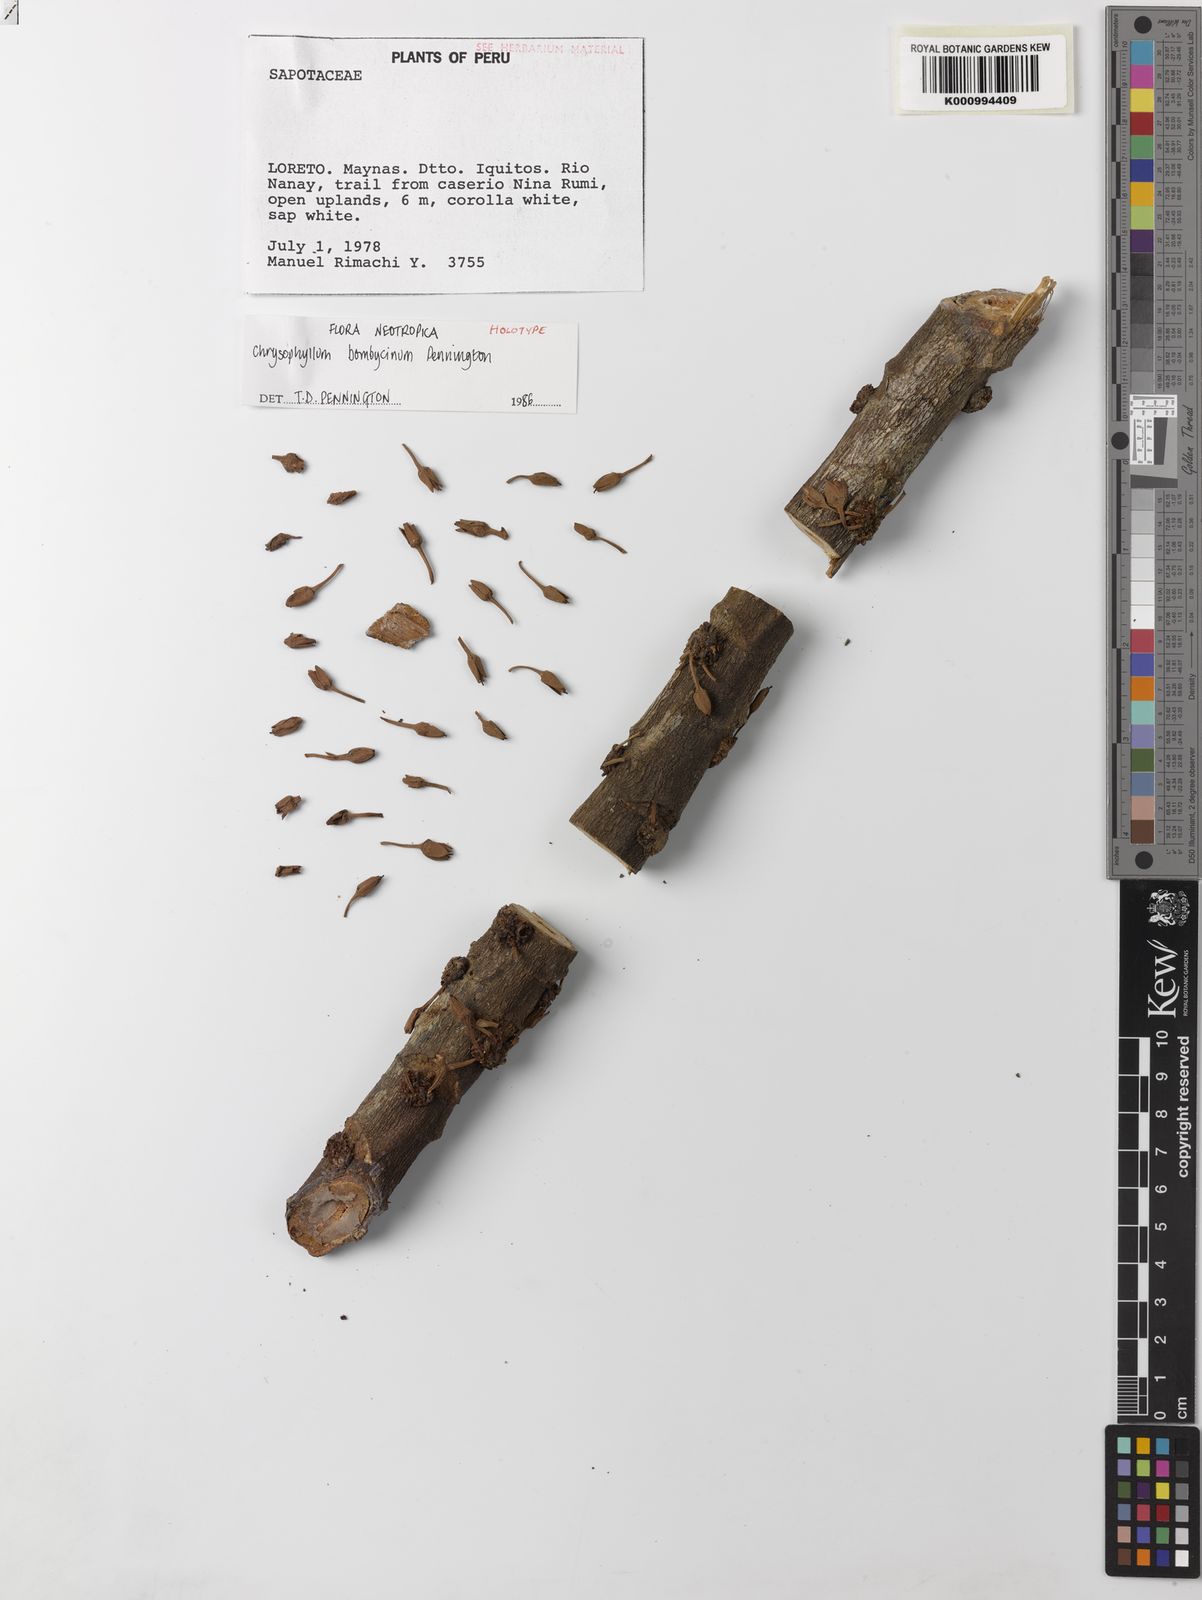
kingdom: Plantae
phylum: Tracheophyta
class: Magnoliopsida
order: Ericales
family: Sapotaceae
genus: Chrysophyllum
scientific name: Chrysophyllum bombycinum
